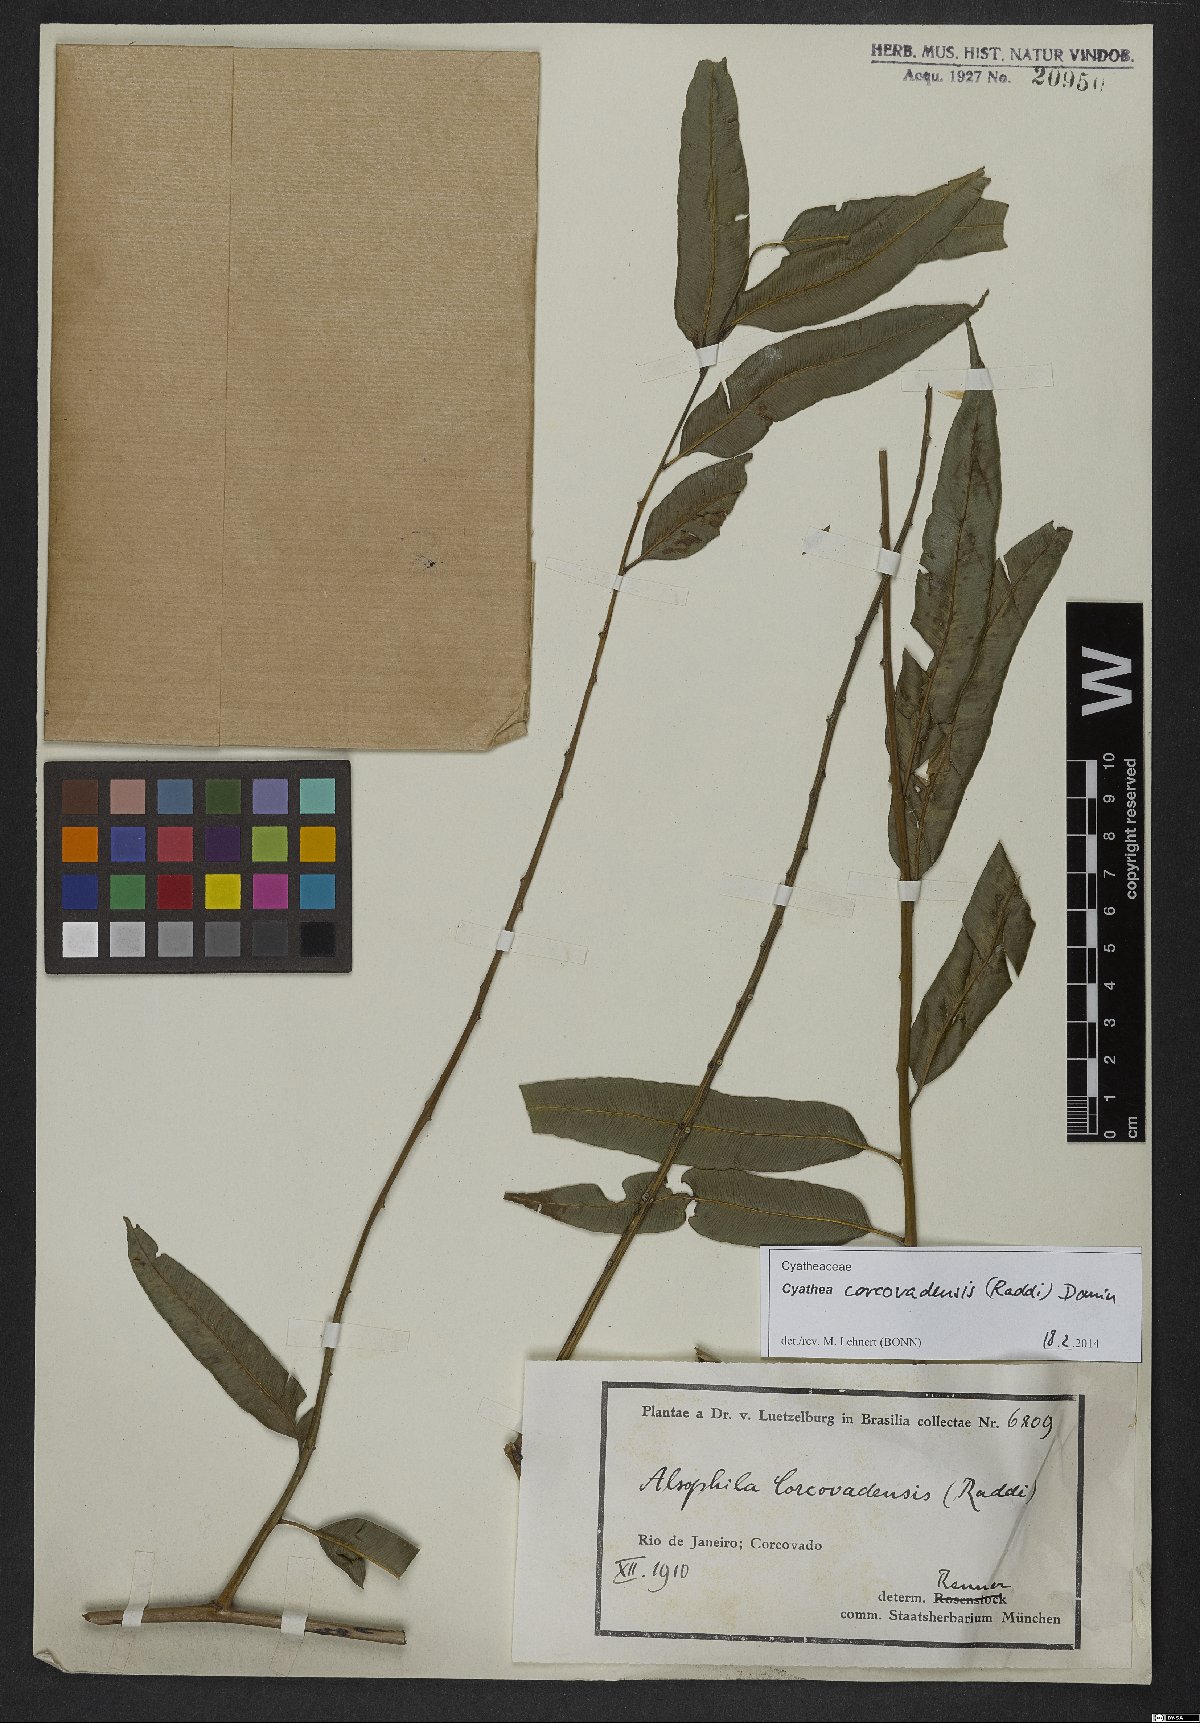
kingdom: Plantae
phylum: Tracheophyta
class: Polypodiopsida
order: Cyatheales
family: Cyatheaceae
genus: Cyathea
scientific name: Cyathea corcovadensis
